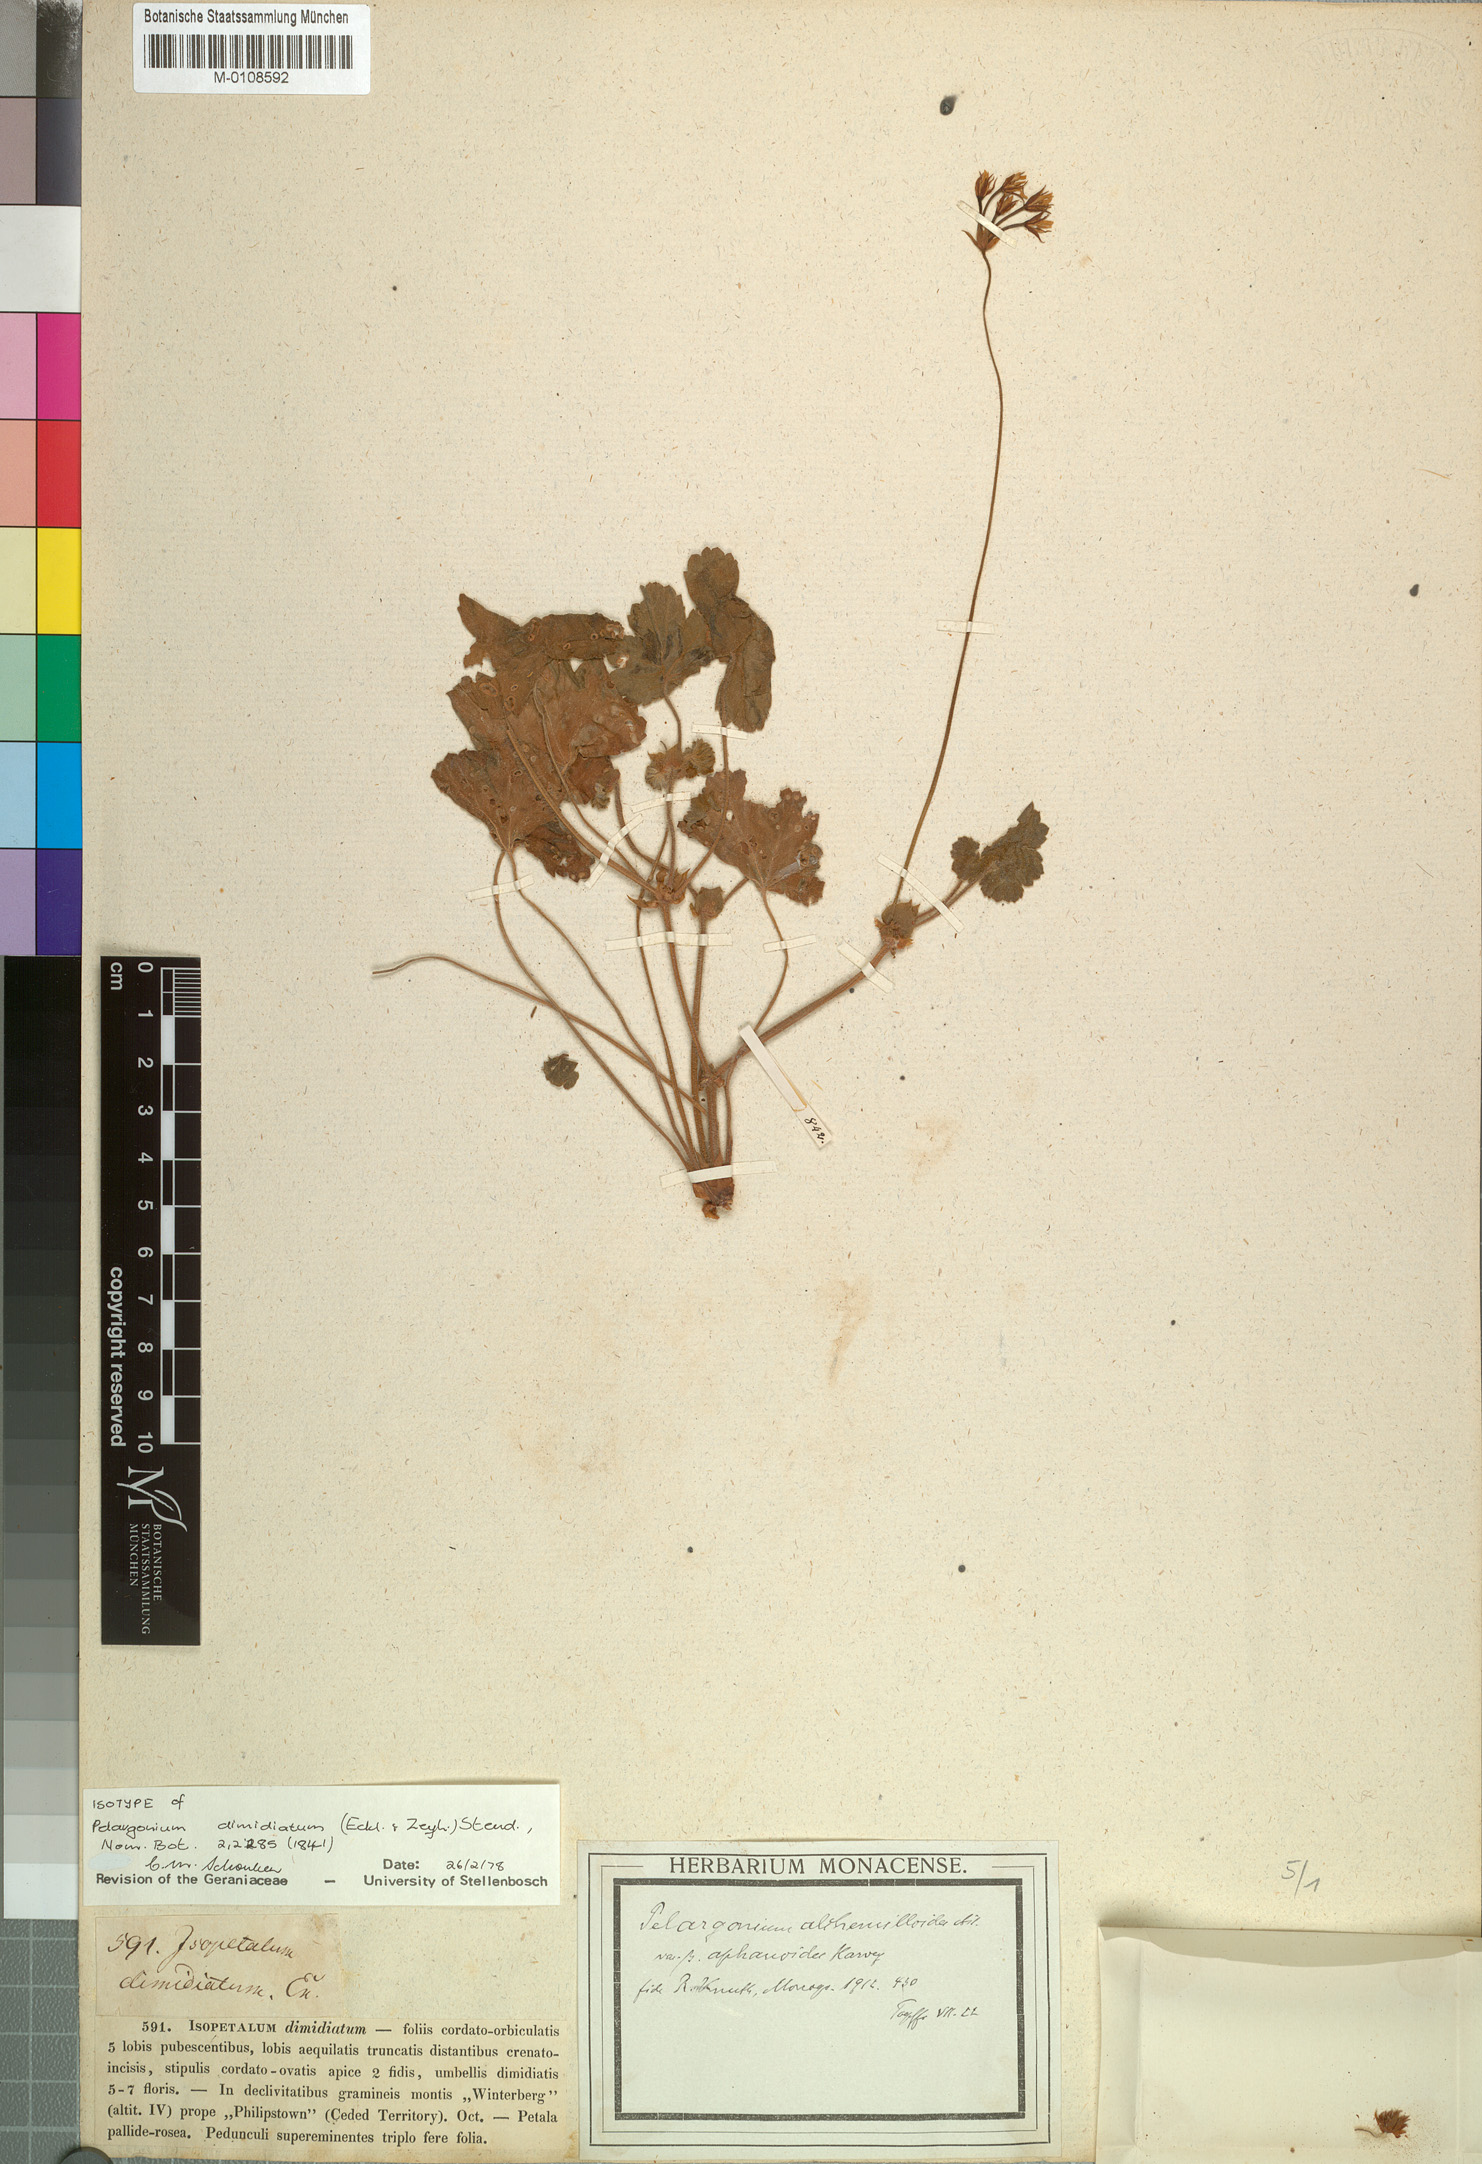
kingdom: Plantae
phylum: Tracheophyta
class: Magnoliopsida
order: Geraniales
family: Geraniaceae
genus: Pelargonium
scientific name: Pelargonium alchemilloides
